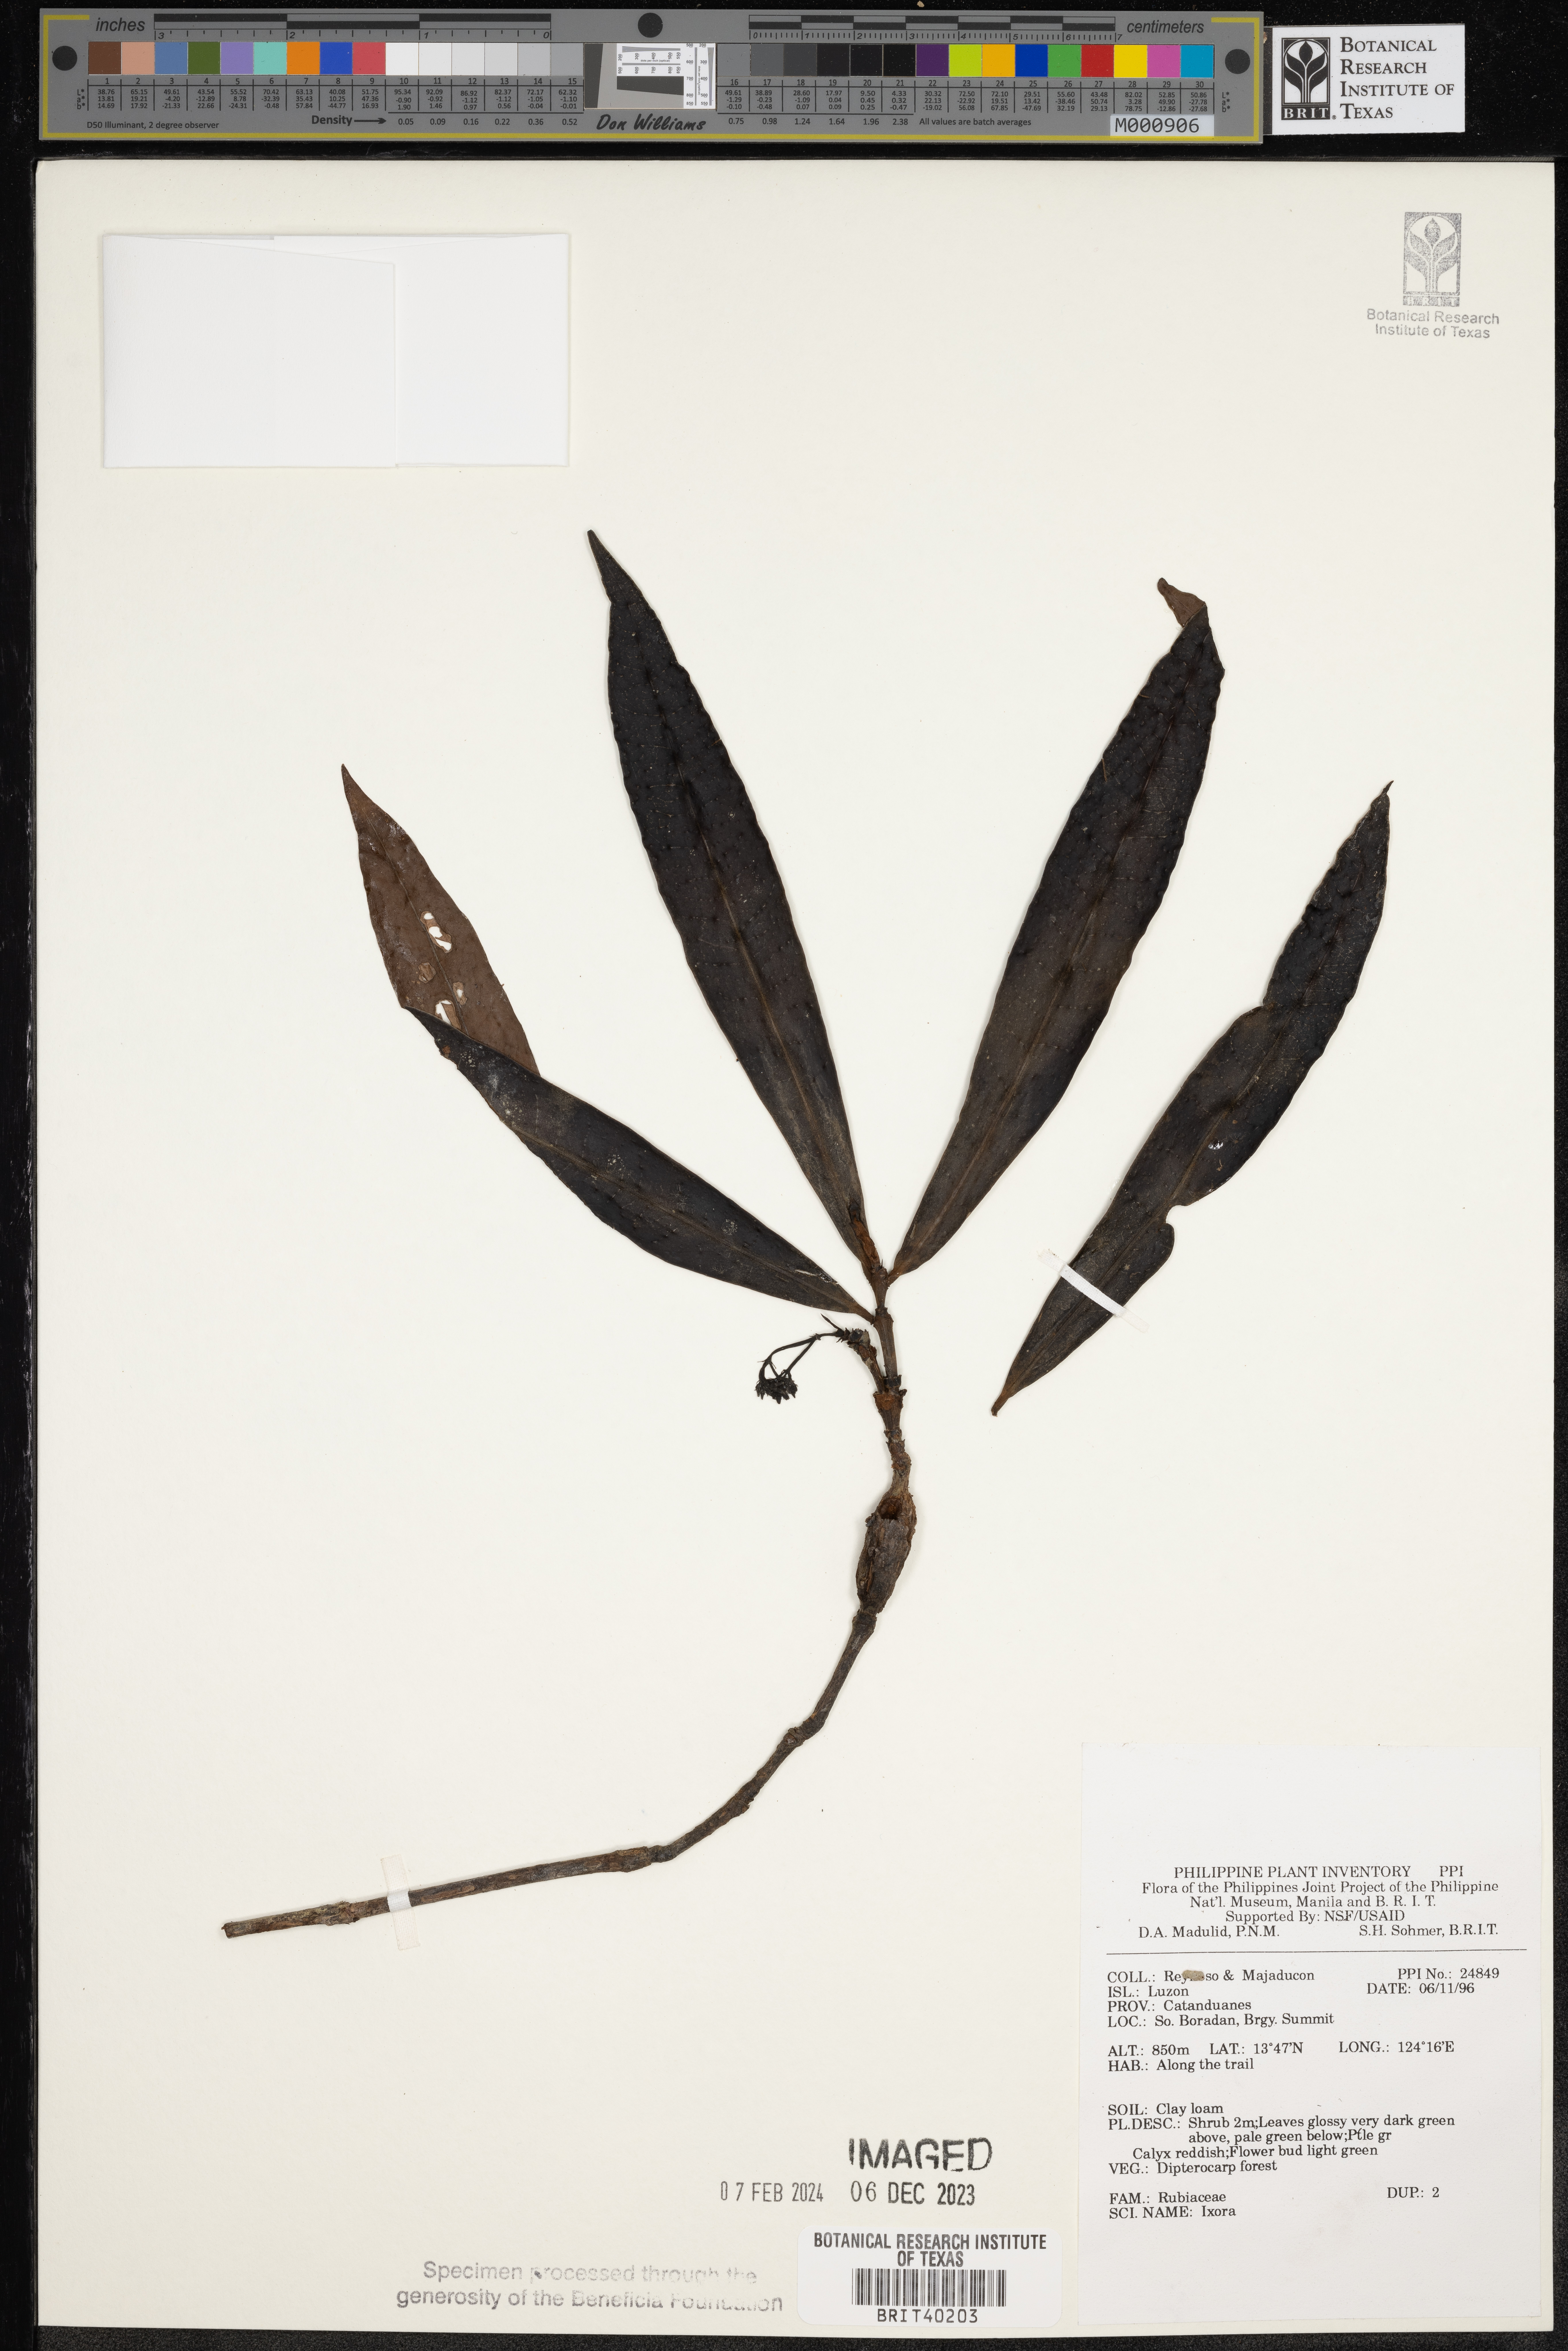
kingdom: Plantae
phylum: Tracheophyta
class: Magnoliopsida
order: Gentianales
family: Rubiaceae
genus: Ixora
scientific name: Ixora
